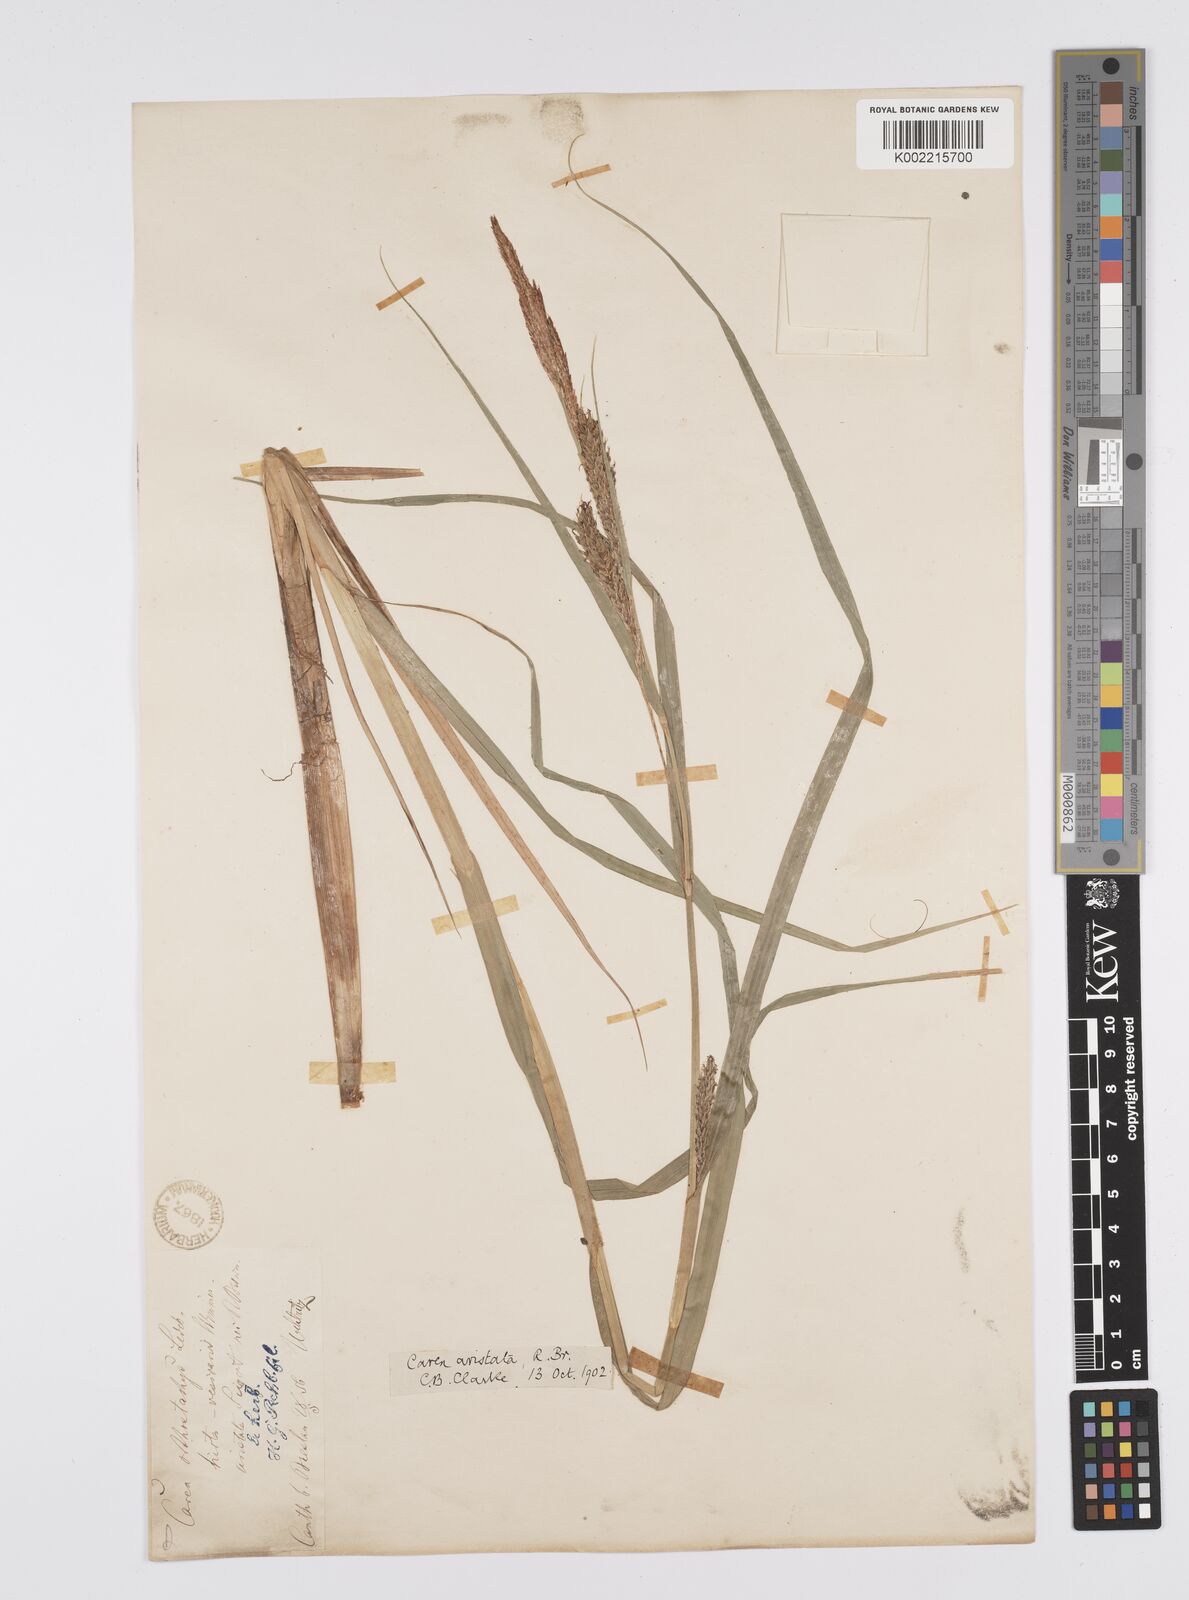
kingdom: Plantae
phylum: Tracheophyta
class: Liliopsida
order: Poales
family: Cyperaceae
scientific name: Cyperaceae
